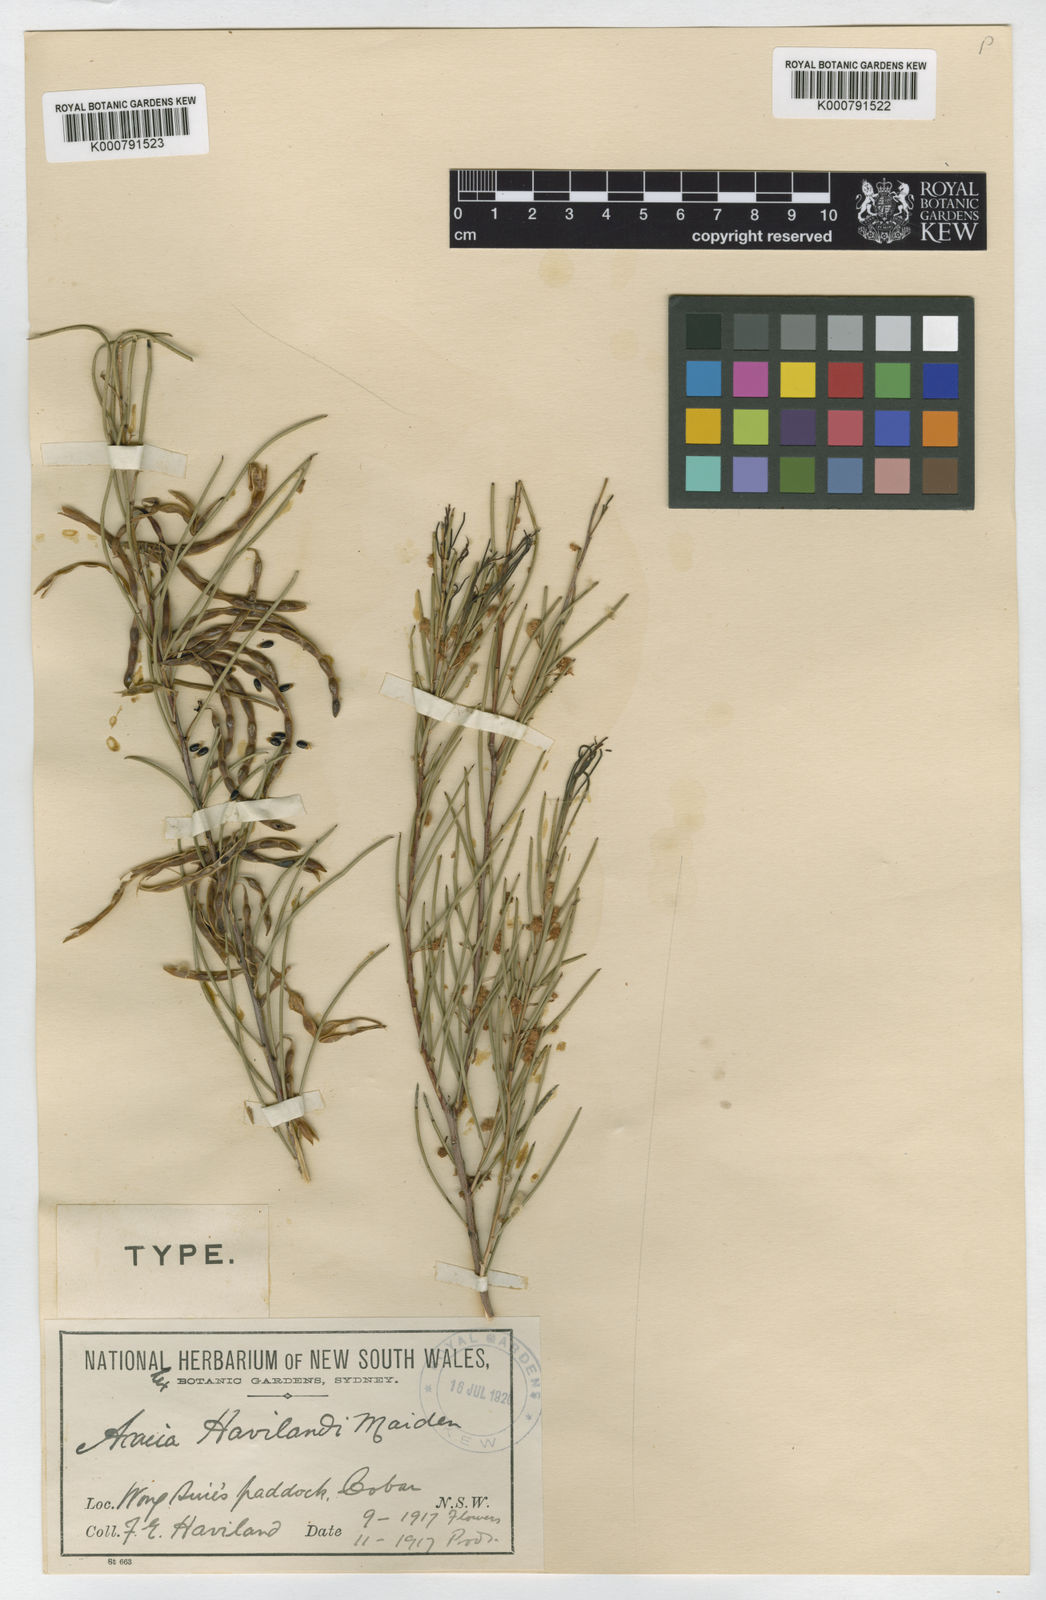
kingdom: Plantae
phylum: Tracheophyta
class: Magnoliopsida
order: Fabales
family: Fabaceae
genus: Acacia
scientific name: Acacia
